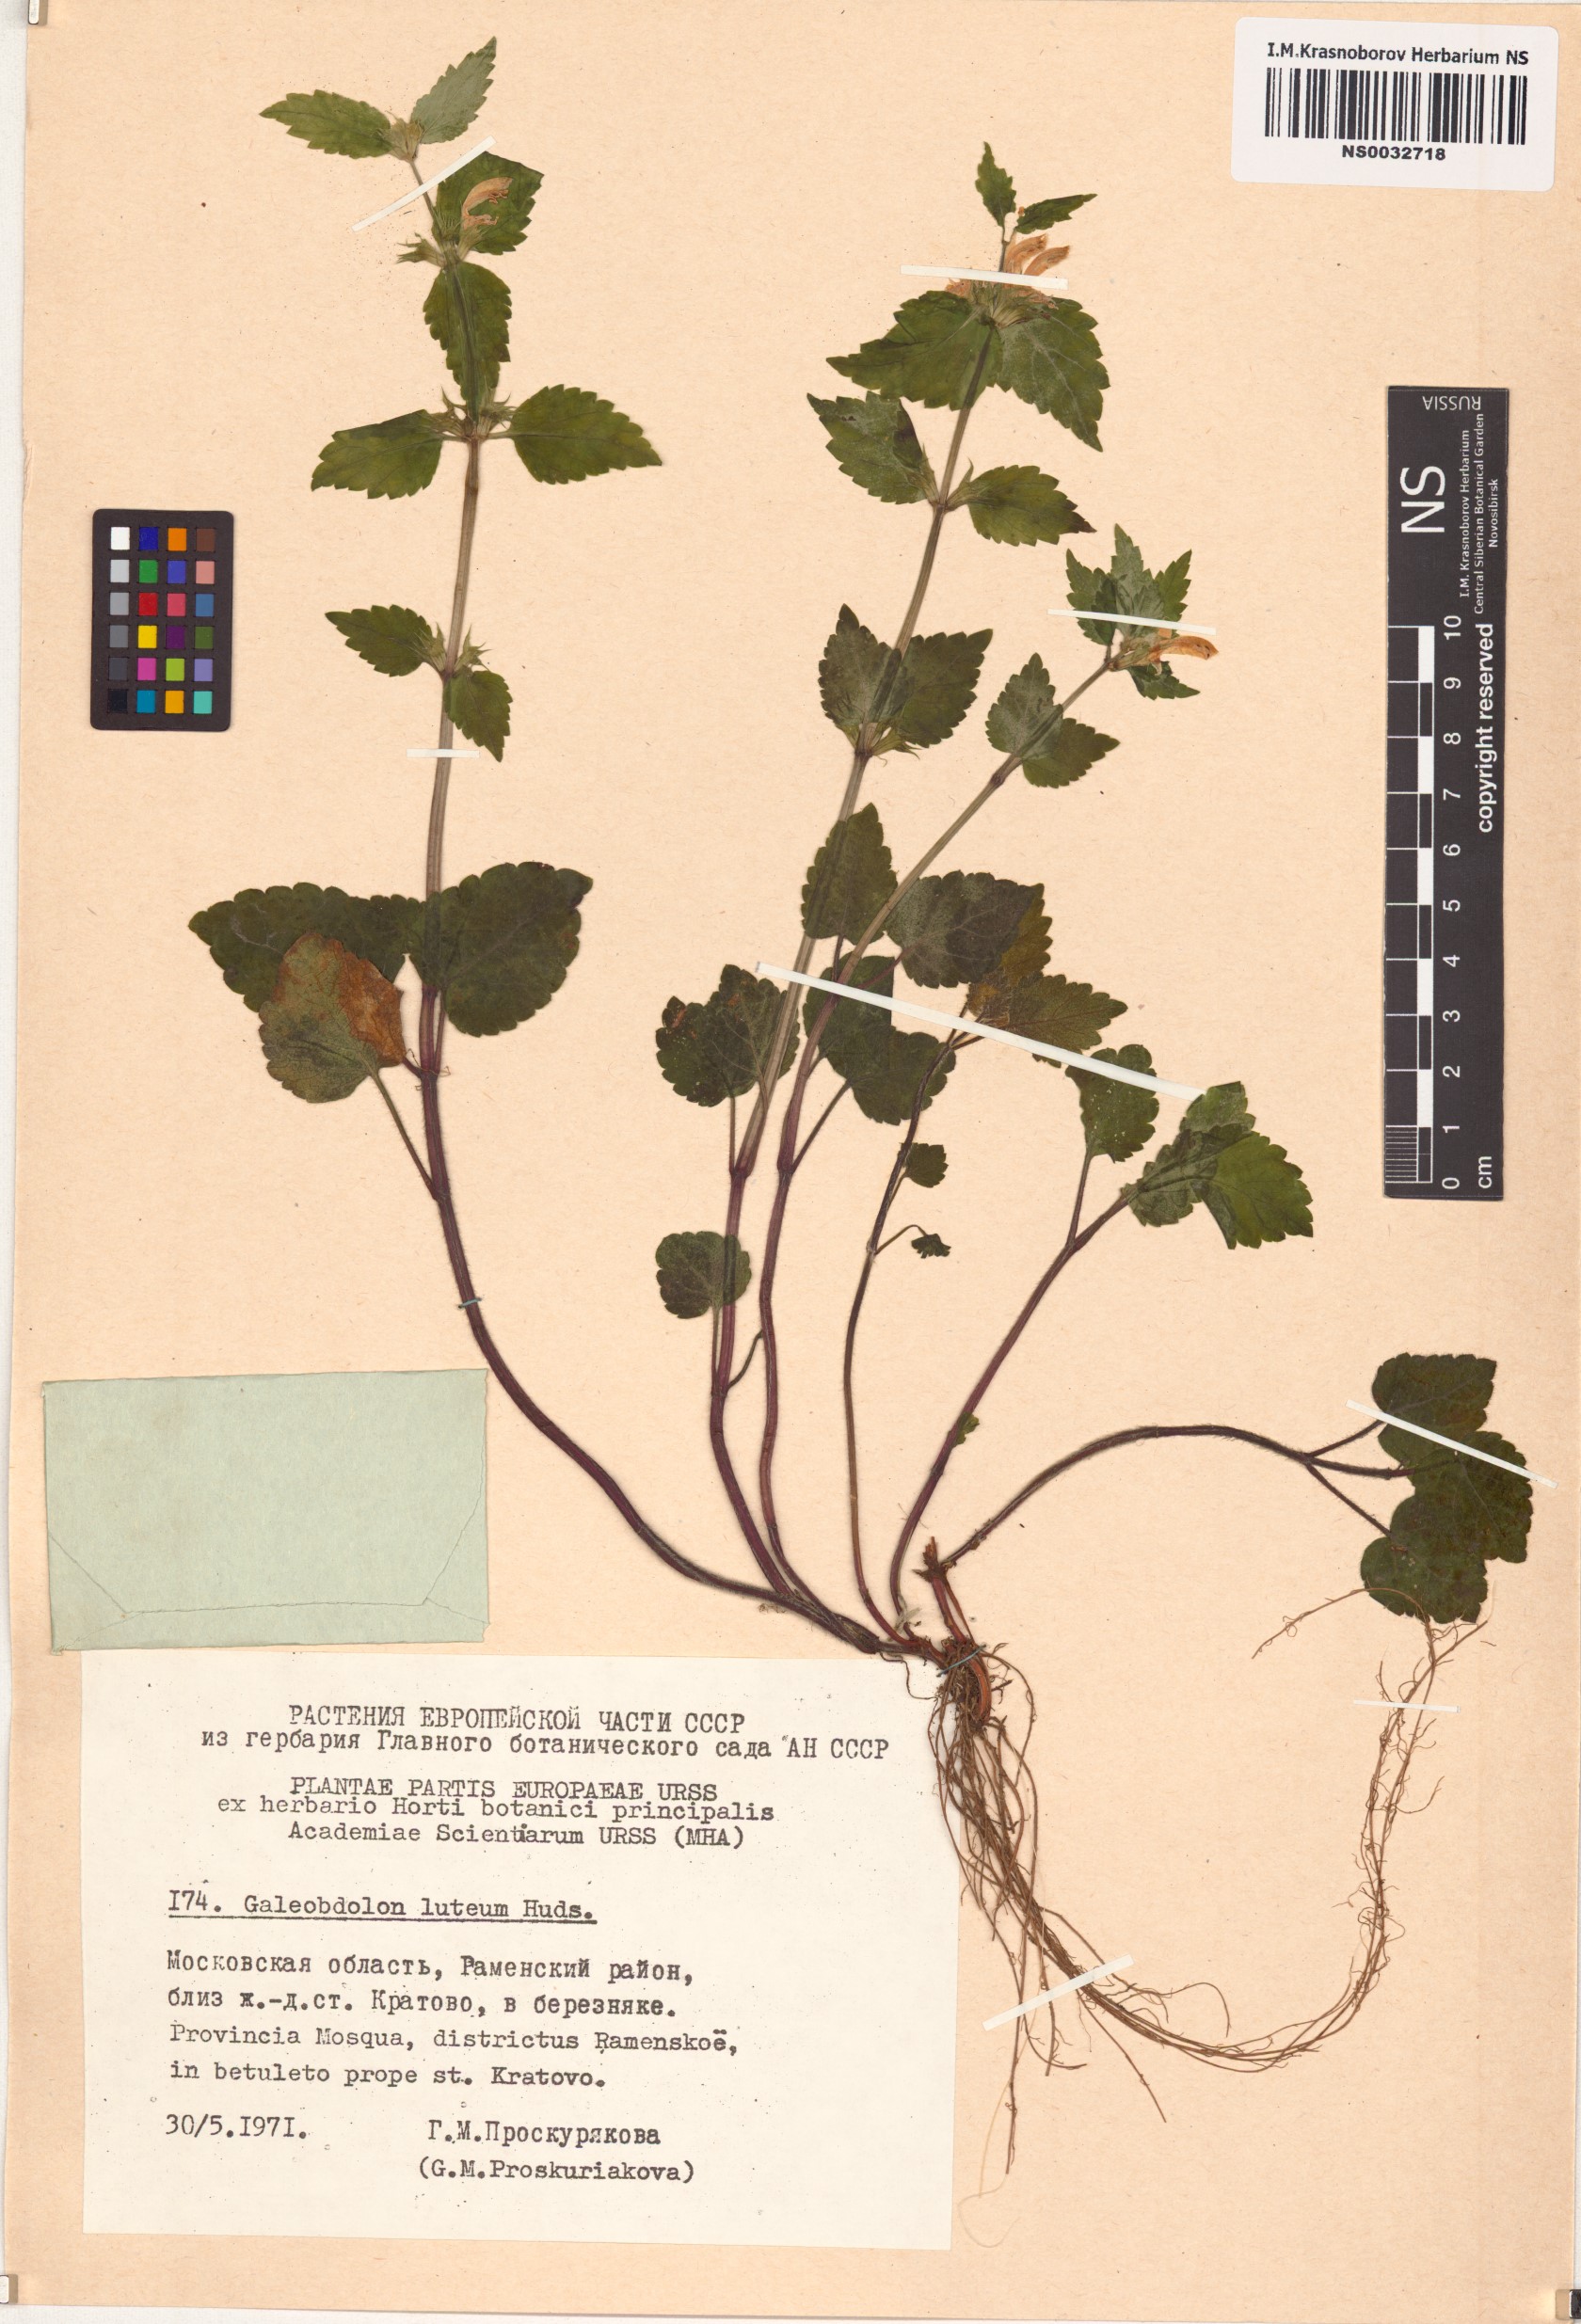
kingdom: Plantae
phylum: Tracheophyta
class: Magnoliopsida
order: Lamiales
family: Lamiaceae
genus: Lamium
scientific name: Lamium galeobdolon
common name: Yellow archangel
